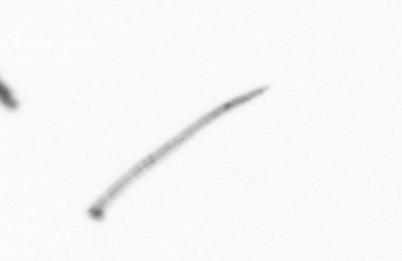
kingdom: Chromista
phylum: Ochrophyta
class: Bacillariophyceae
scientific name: Bacillariophyceae
